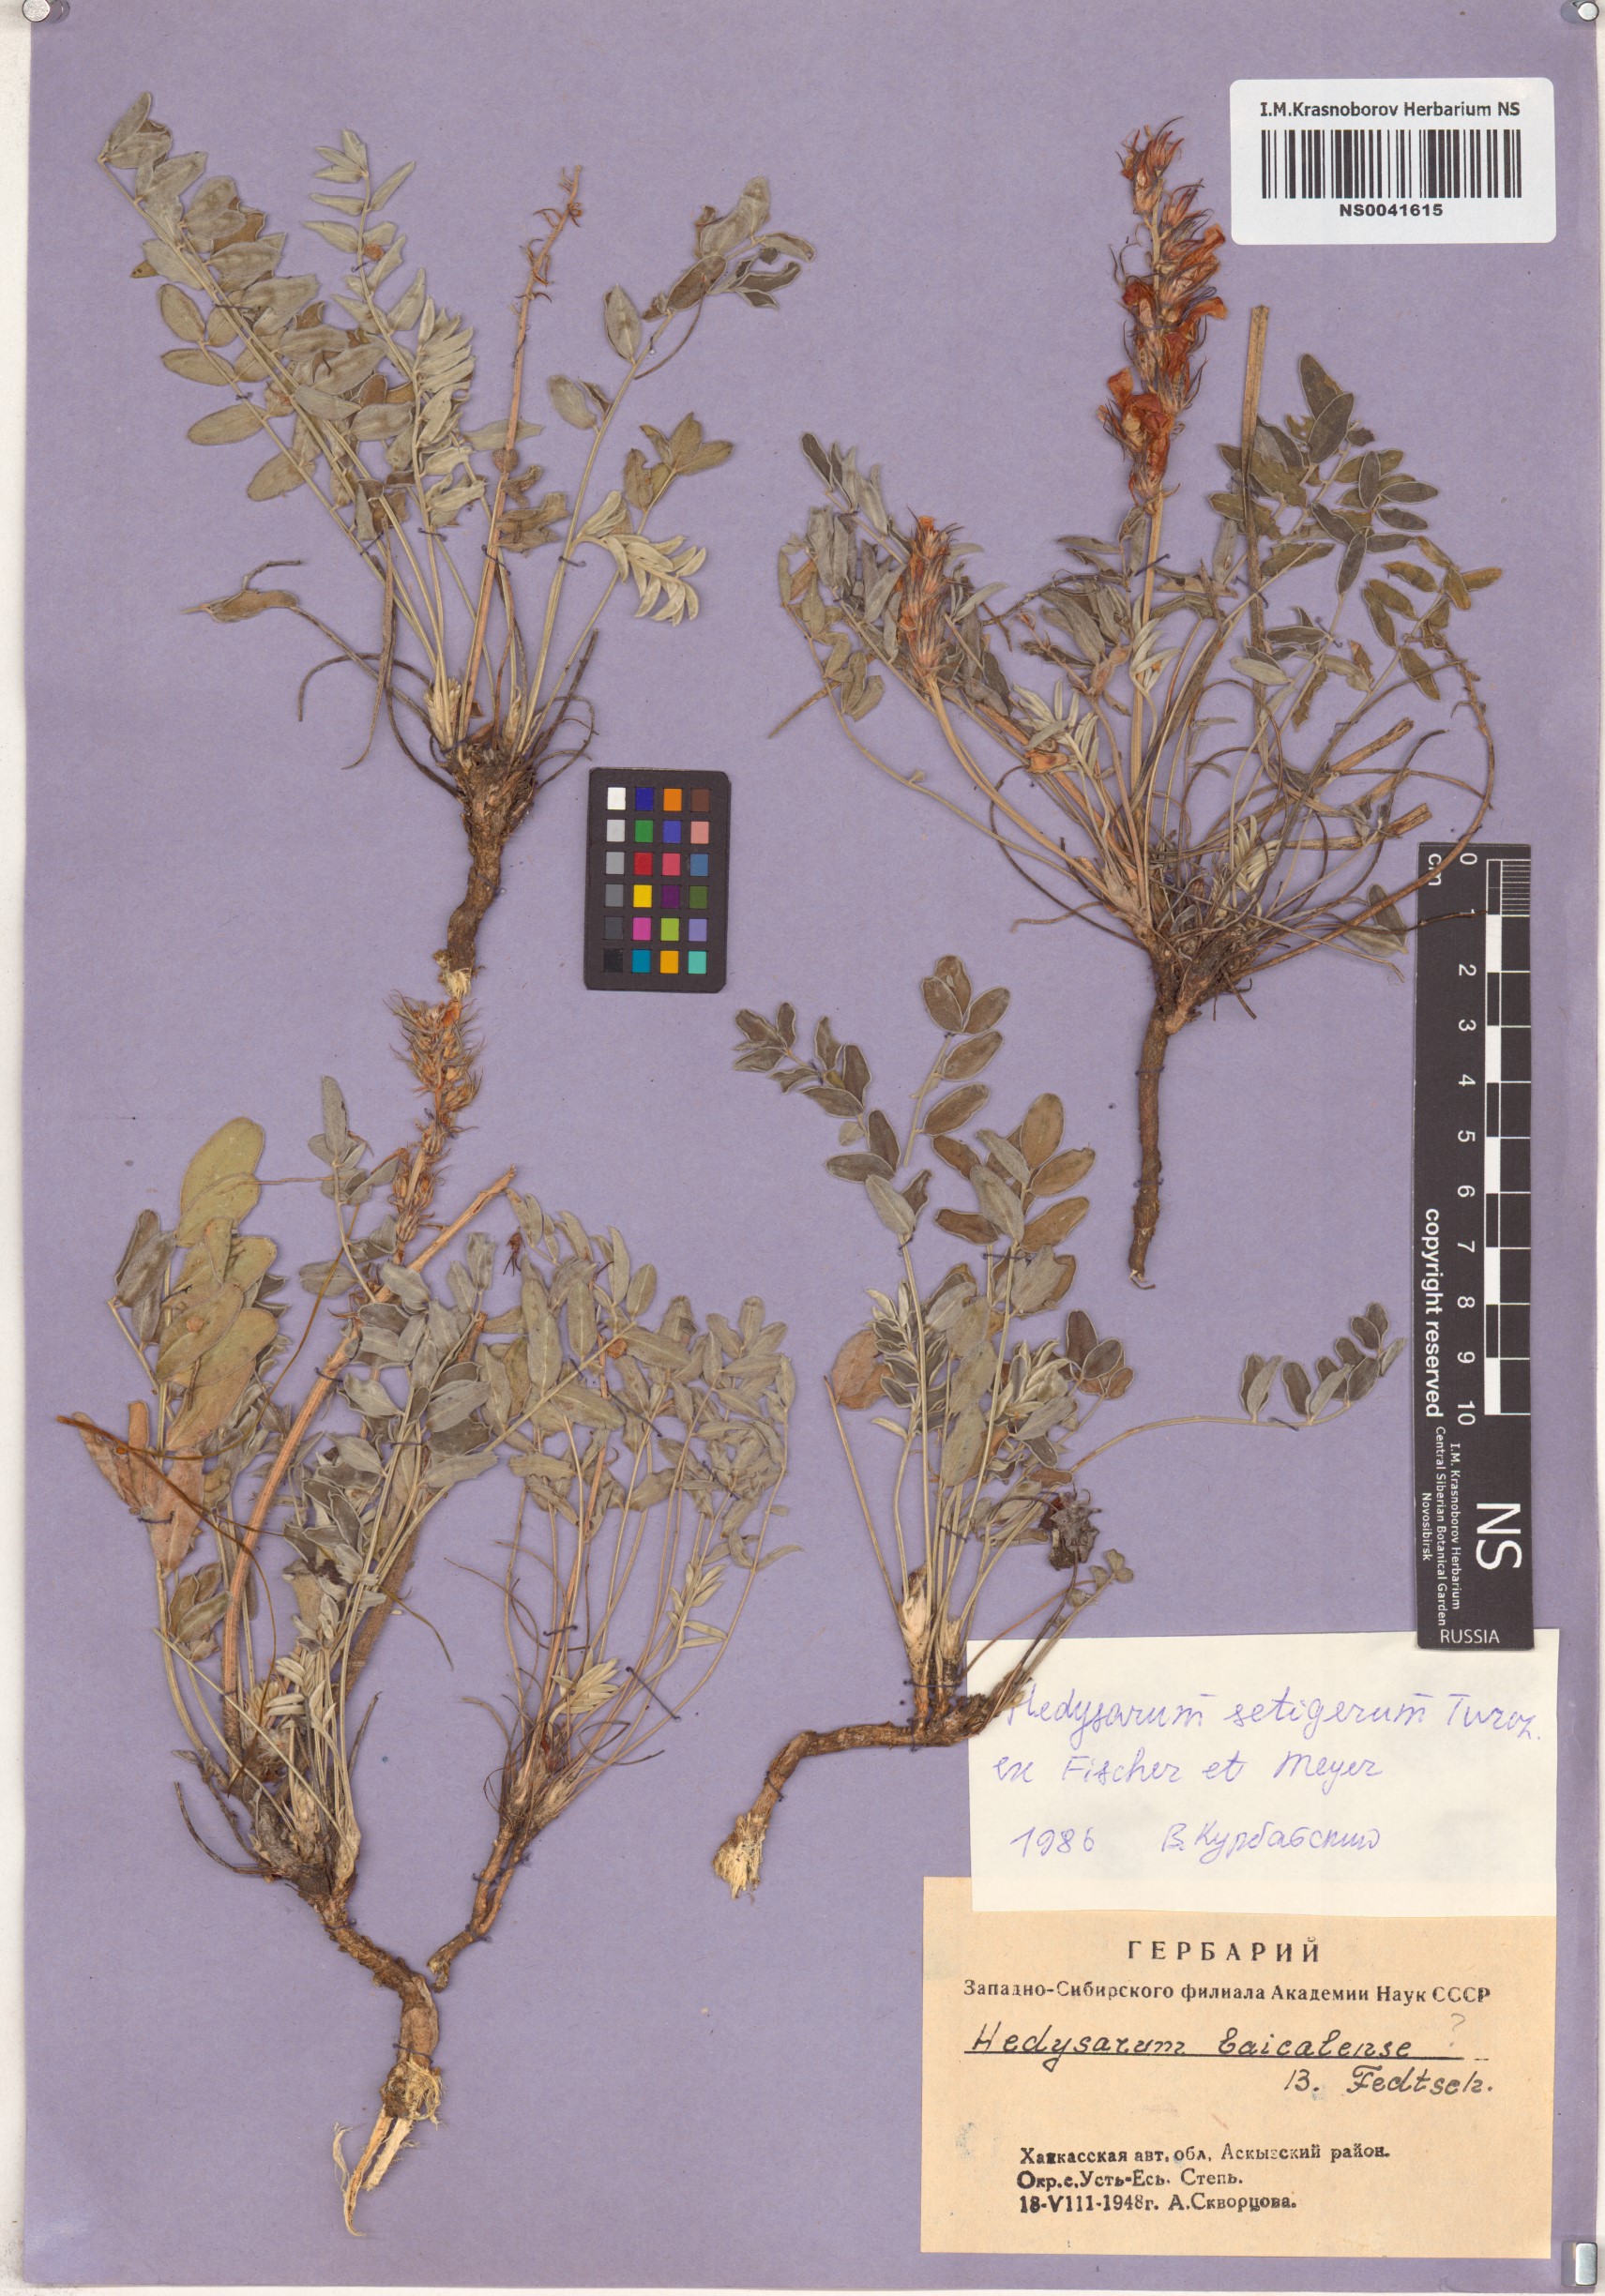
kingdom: Plantae
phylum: Tracheophyta
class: Magnoliopsida
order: Fabales
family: Fabaceae
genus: Hedysarum
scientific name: Hedysarum setigerum
